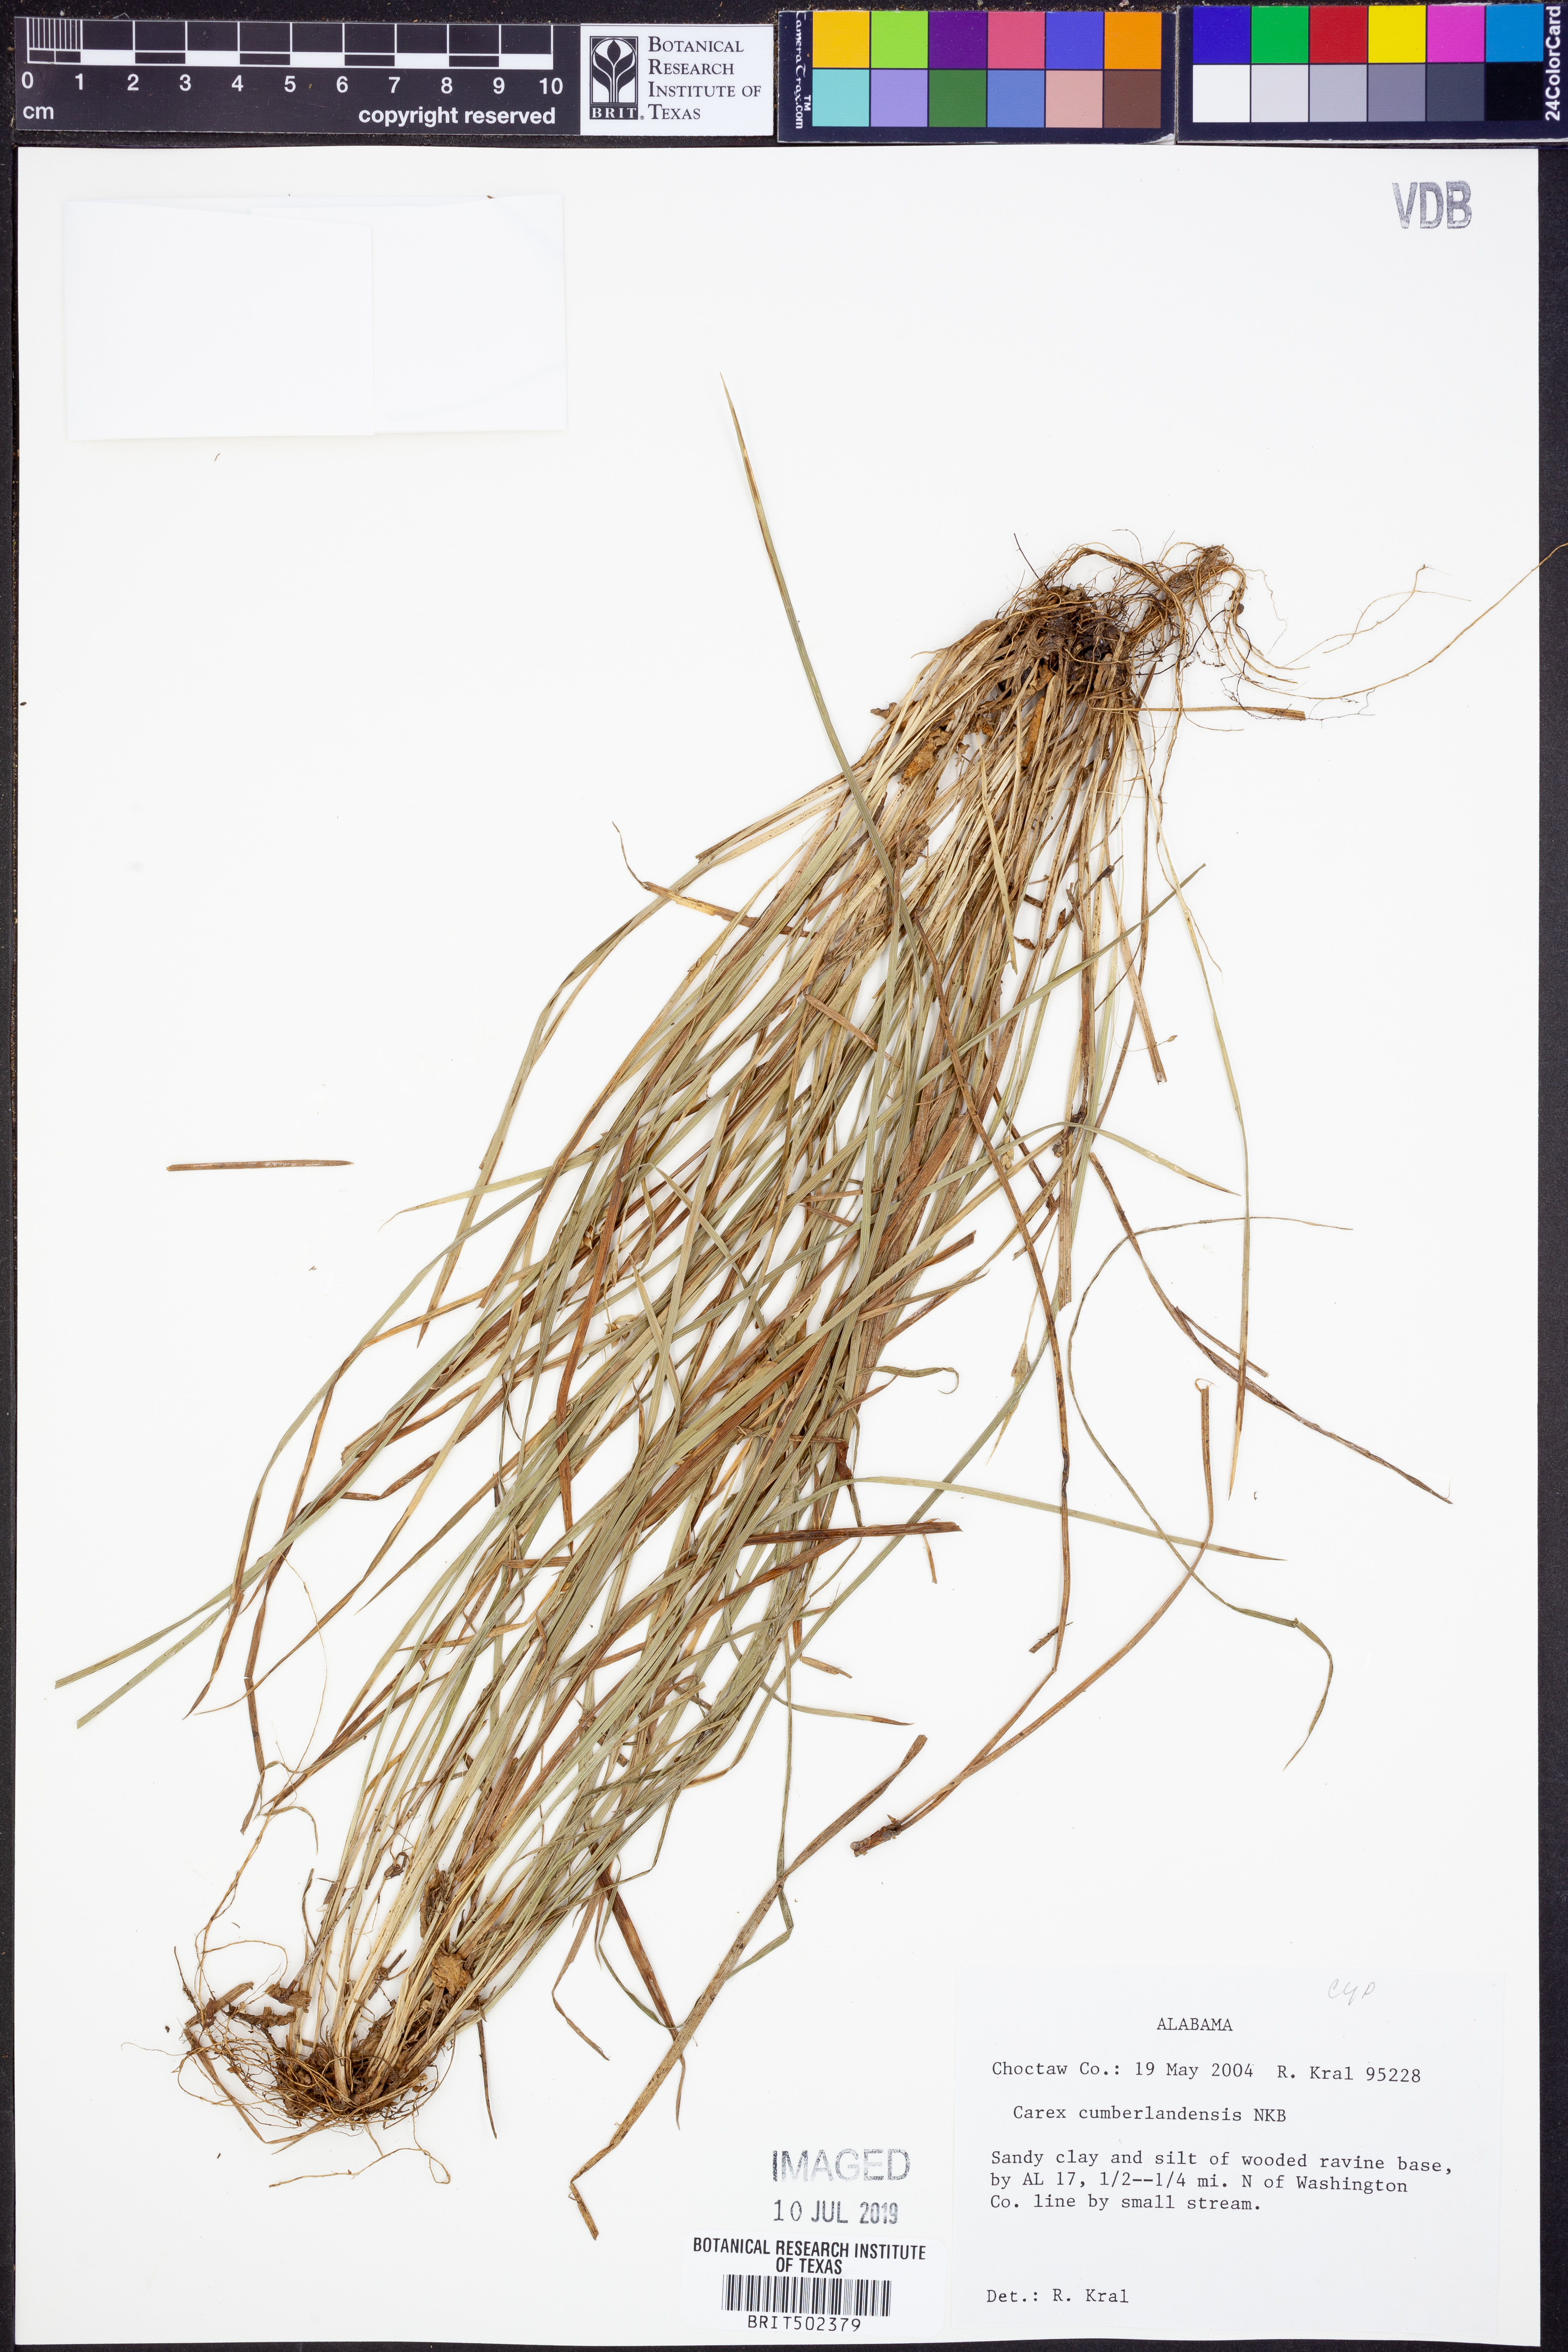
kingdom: Plantae
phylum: Tracheophyta
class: Liliopsida
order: Poales
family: Cyperaceae
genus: Carex
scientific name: Carex cumberlandensis
